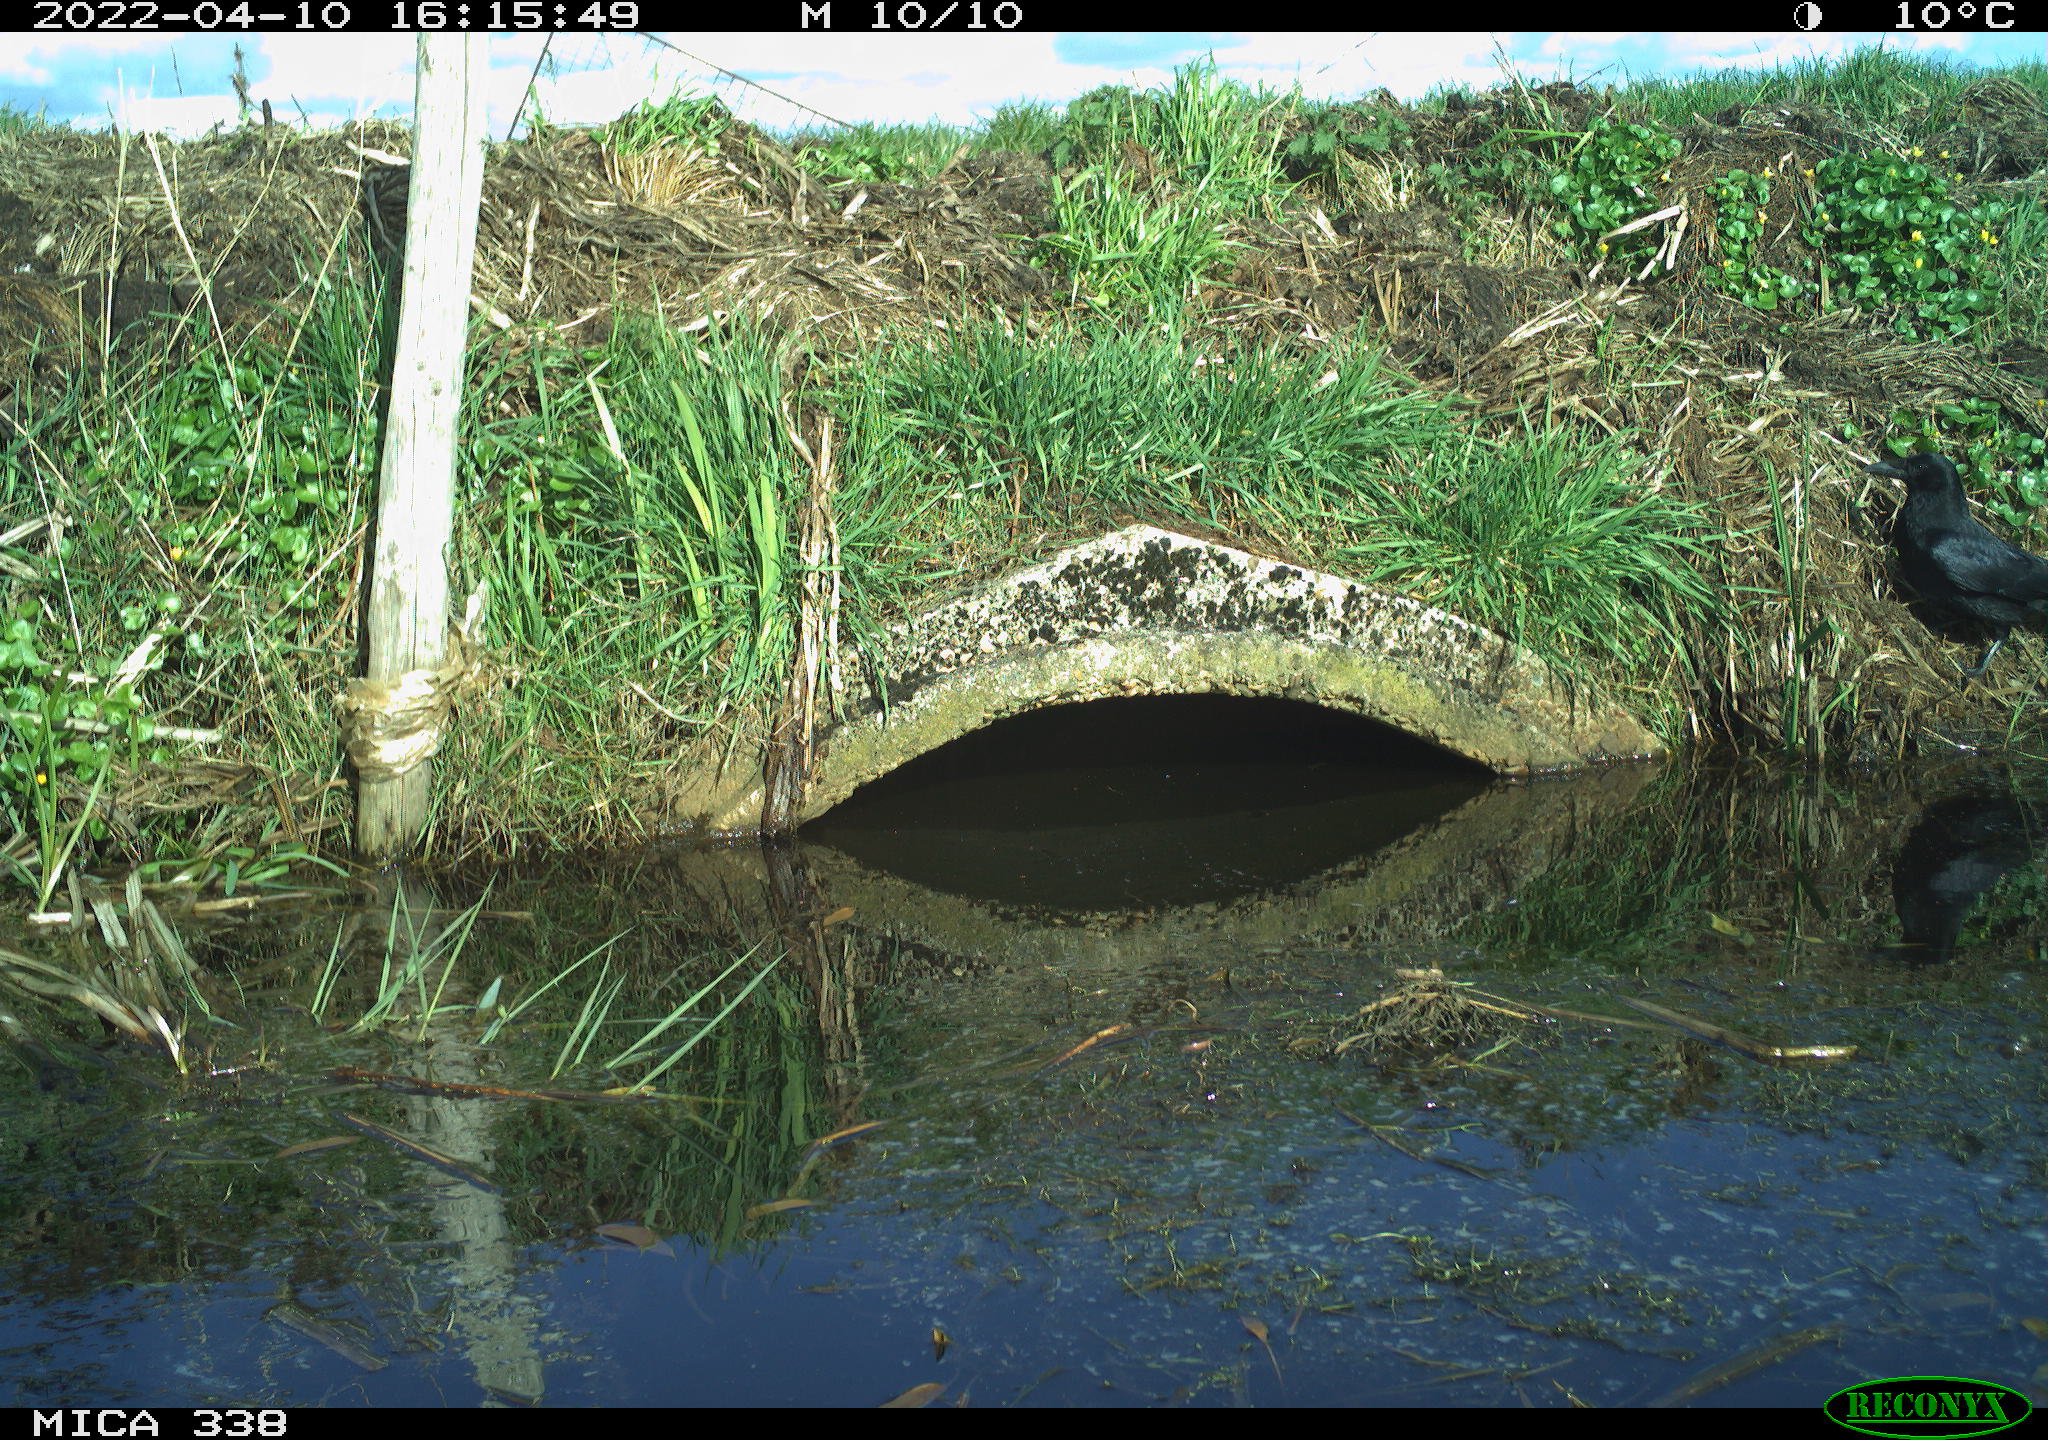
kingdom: Animalia
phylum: Chordata
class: Aves
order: Passeriformes
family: Corvidae
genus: Corvus
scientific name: Corvus corone
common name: Carrion crow
